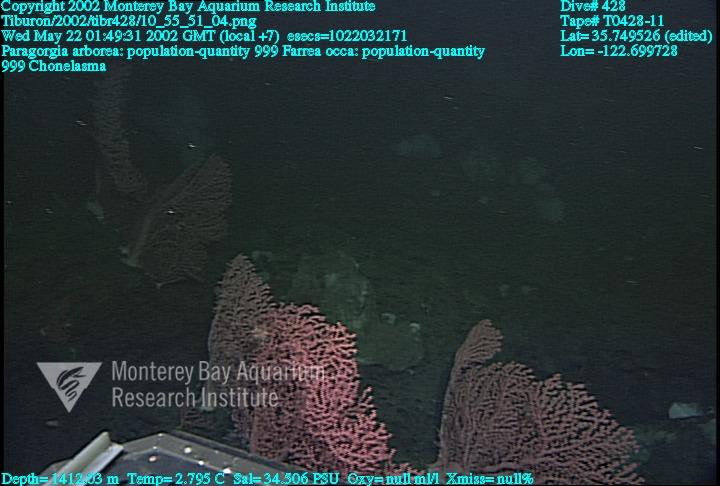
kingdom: Animalia
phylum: Porifera
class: Hexactinellida
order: Sceptrulophora
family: Euretidae
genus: Chonelasma
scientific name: Chonelasma
